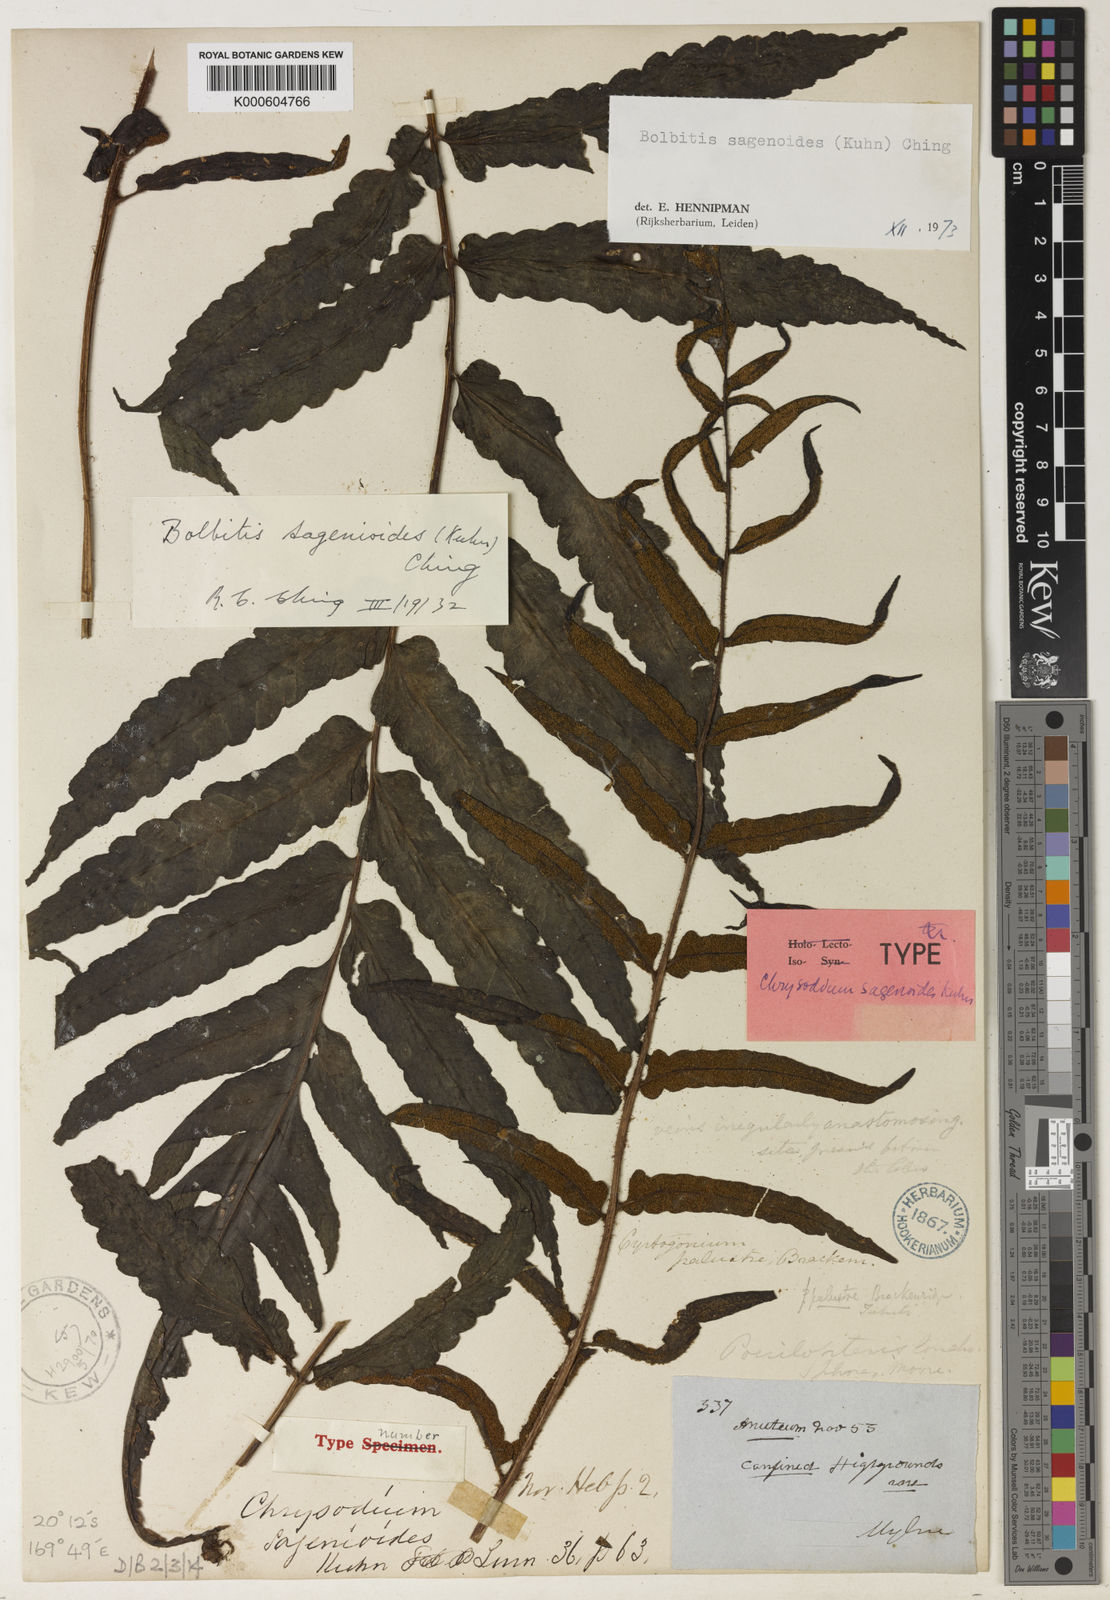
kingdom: Plantae
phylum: Tracheophyta
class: Polypodiopsida
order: Polypodiales
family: Dryopteridaceae
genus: Bolbitis
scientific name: Bolbitis quoyana
